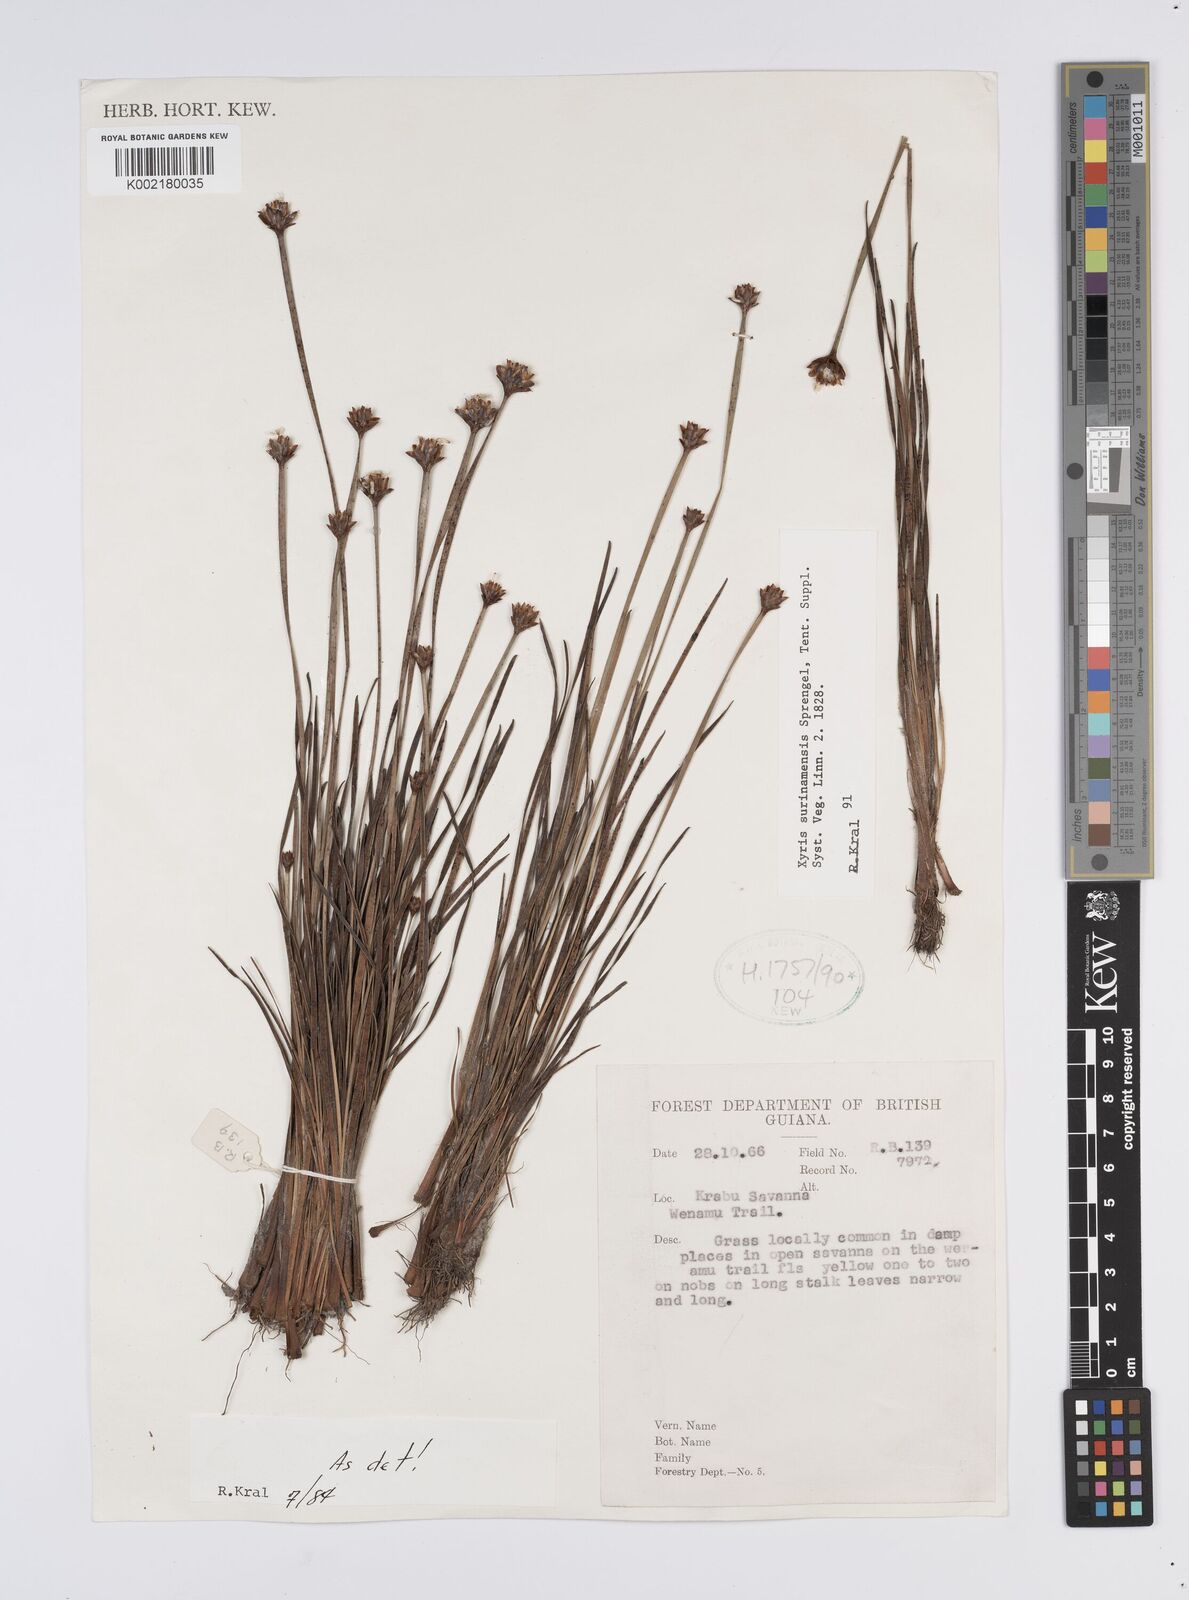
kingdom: Plantae
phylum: Tracheophyta
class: Liliopsida
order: Poales
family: Xyridaceae
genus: Xyris
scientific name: Xyris surinamensis
